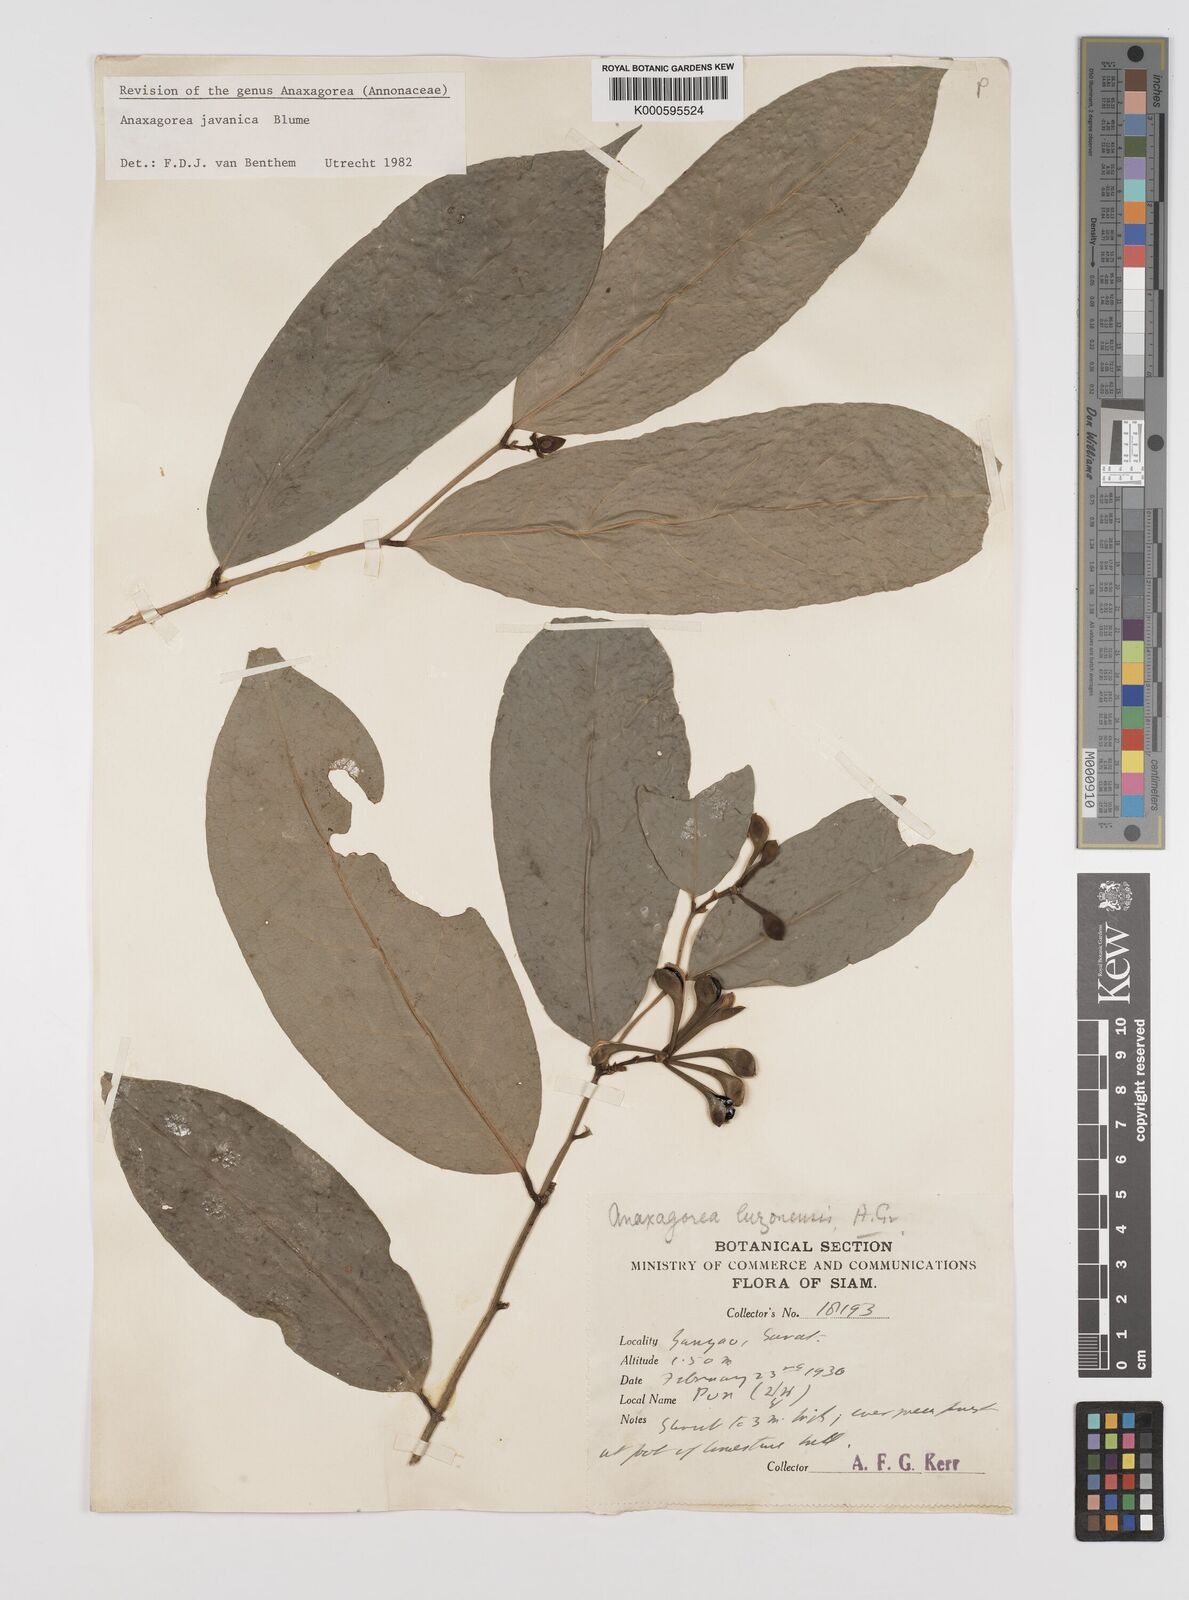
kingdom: Plantae
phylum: Tracheophyta
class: Magnoliopsida
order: Magnoliales
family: Annonaceae
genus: Anaxagorea
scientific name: Anaxagorea javanica
